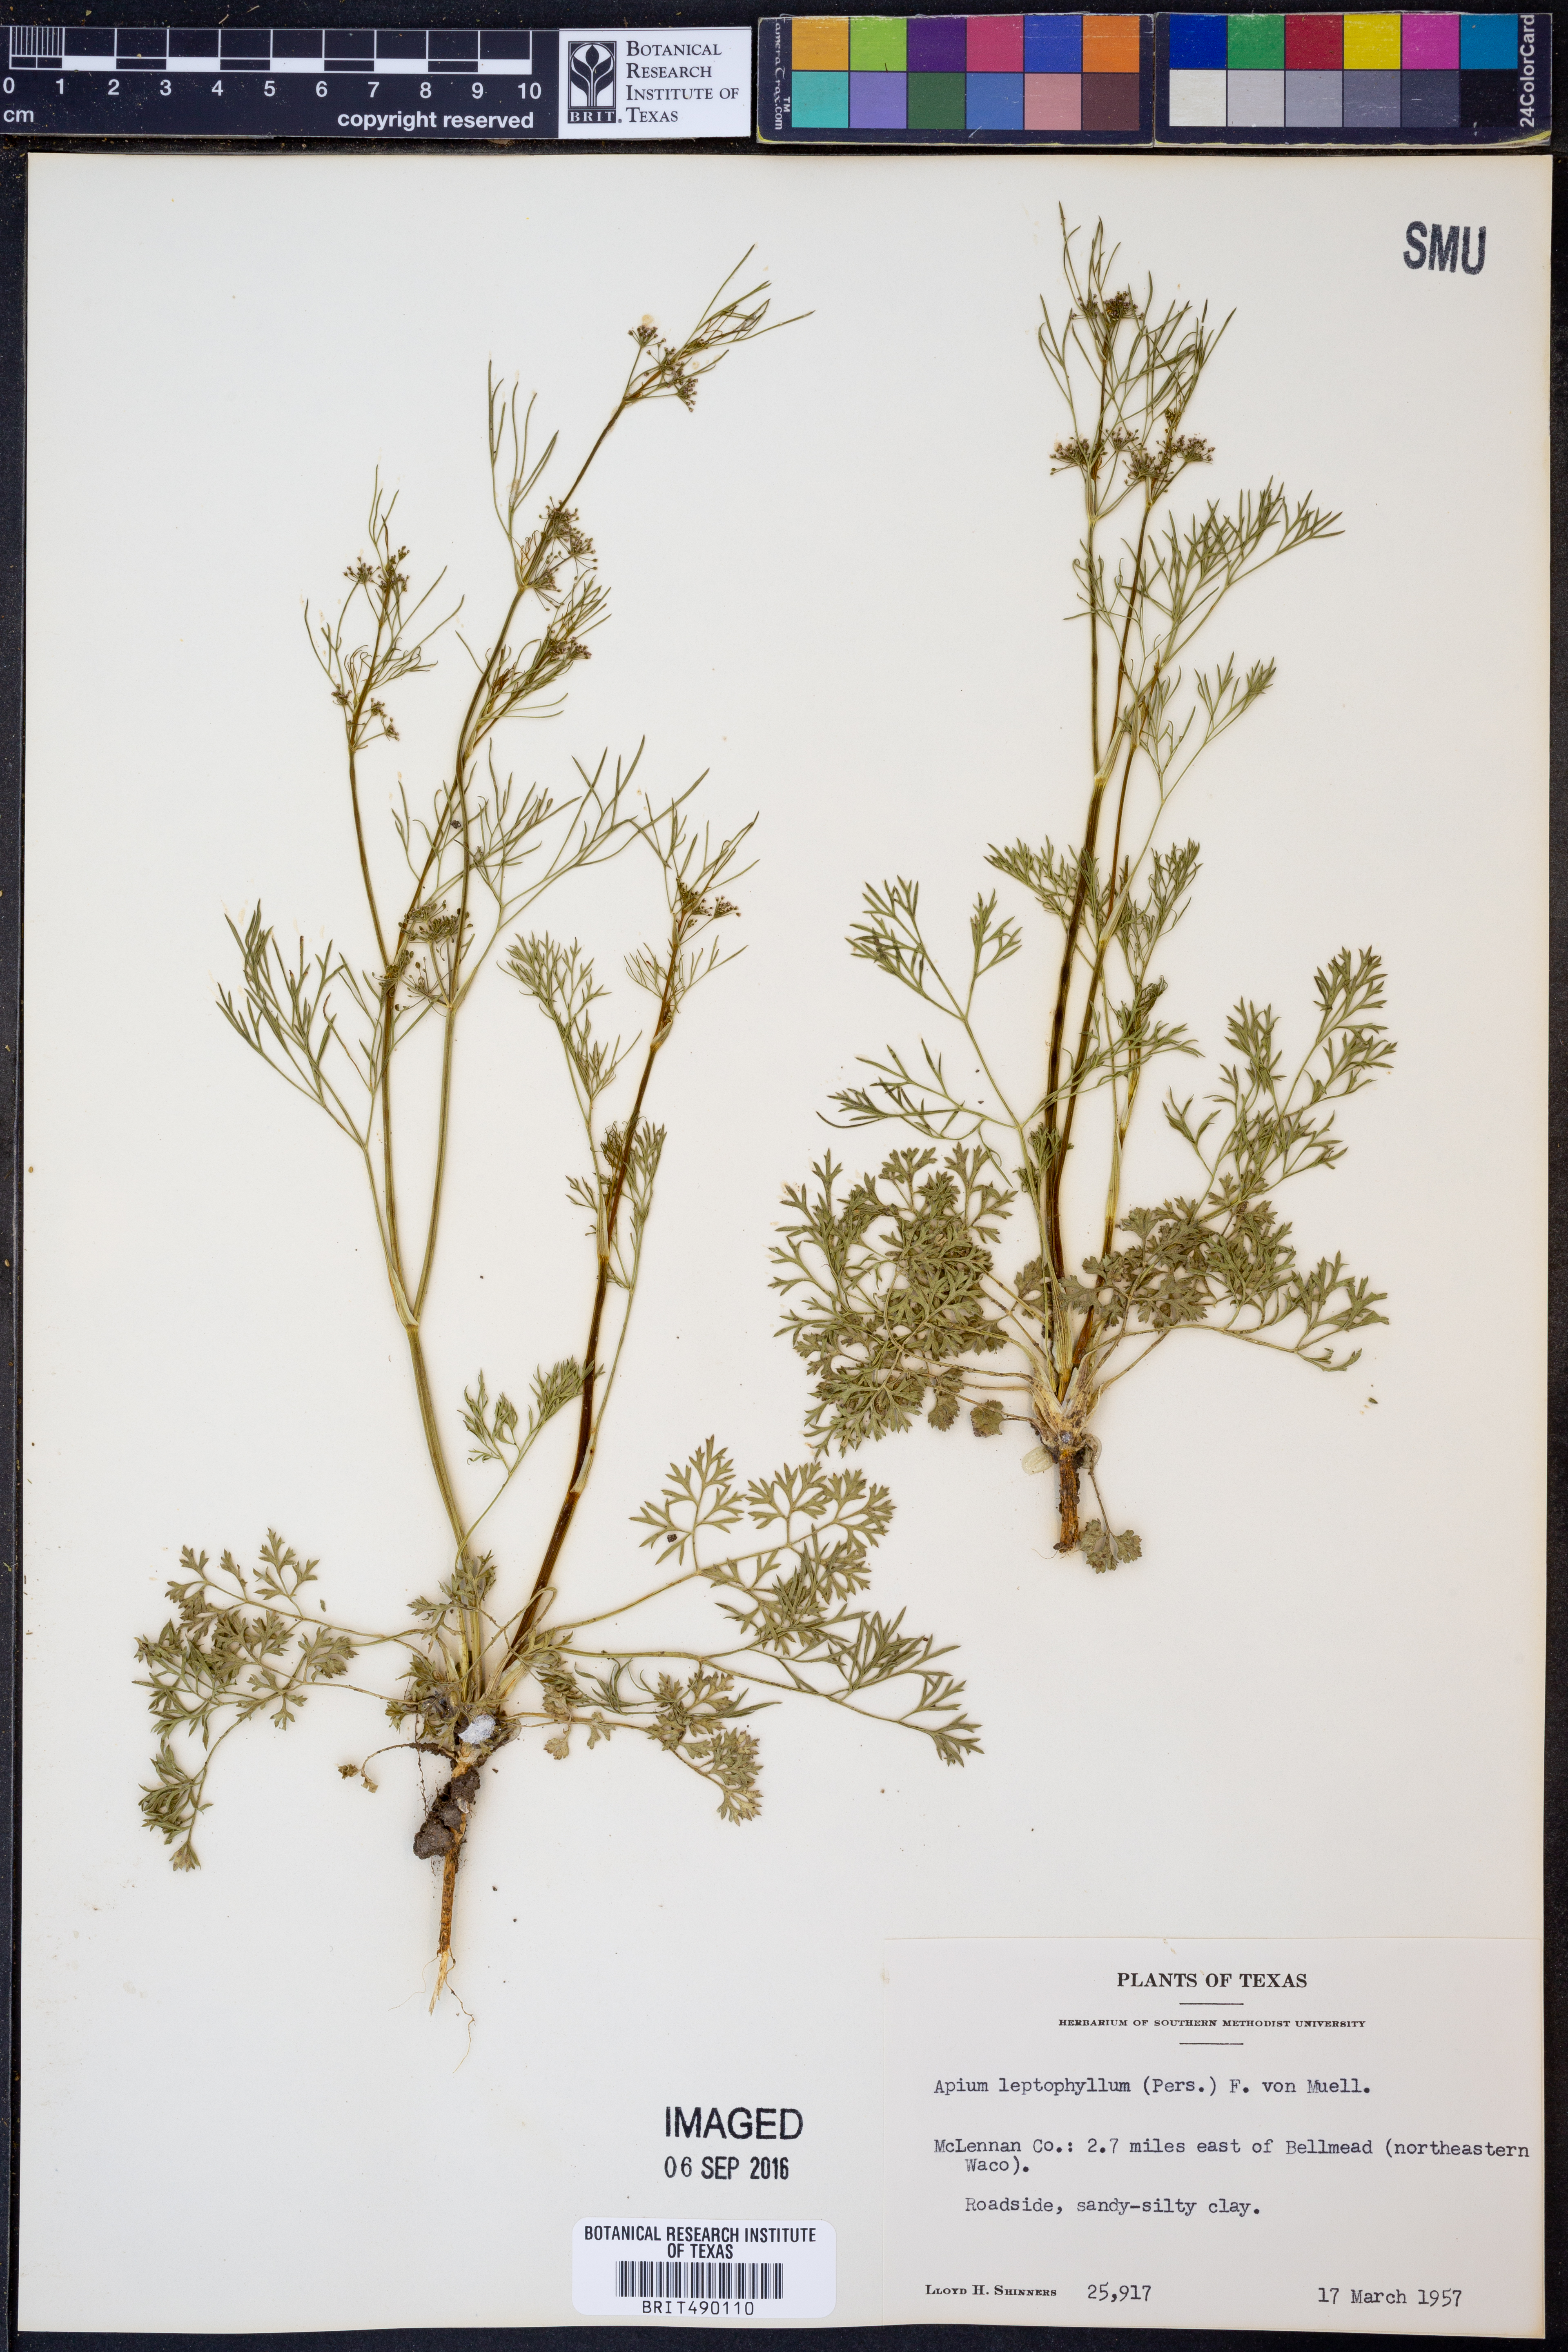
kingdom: Plantae
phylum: Tracheophyta
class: Magnoliopsida
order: Apiales
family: Apiaceae
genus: Cyclospermum
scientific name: Cyclospermum leptophyllum
